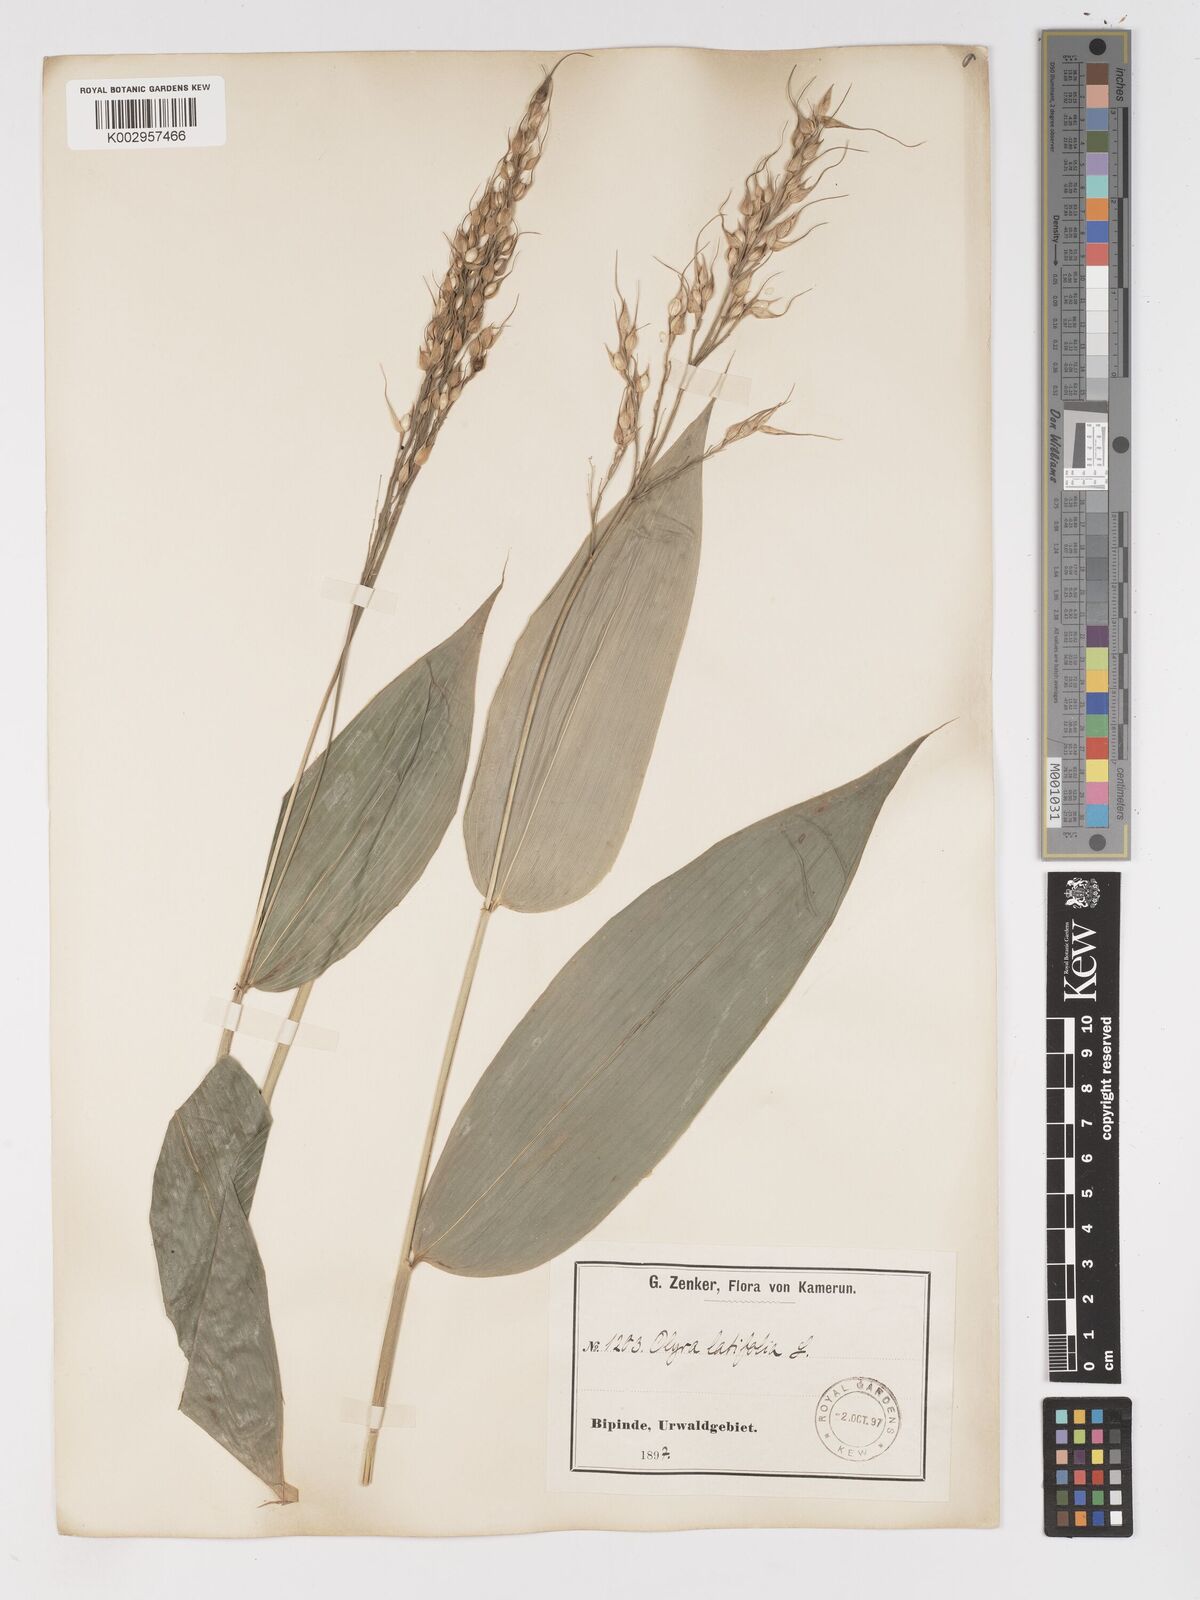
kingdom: Plantae
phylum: Tracheophyta
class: Liliopsida
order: Poales
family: Poaceae
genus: Olyra
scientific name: Olyra latifolia
